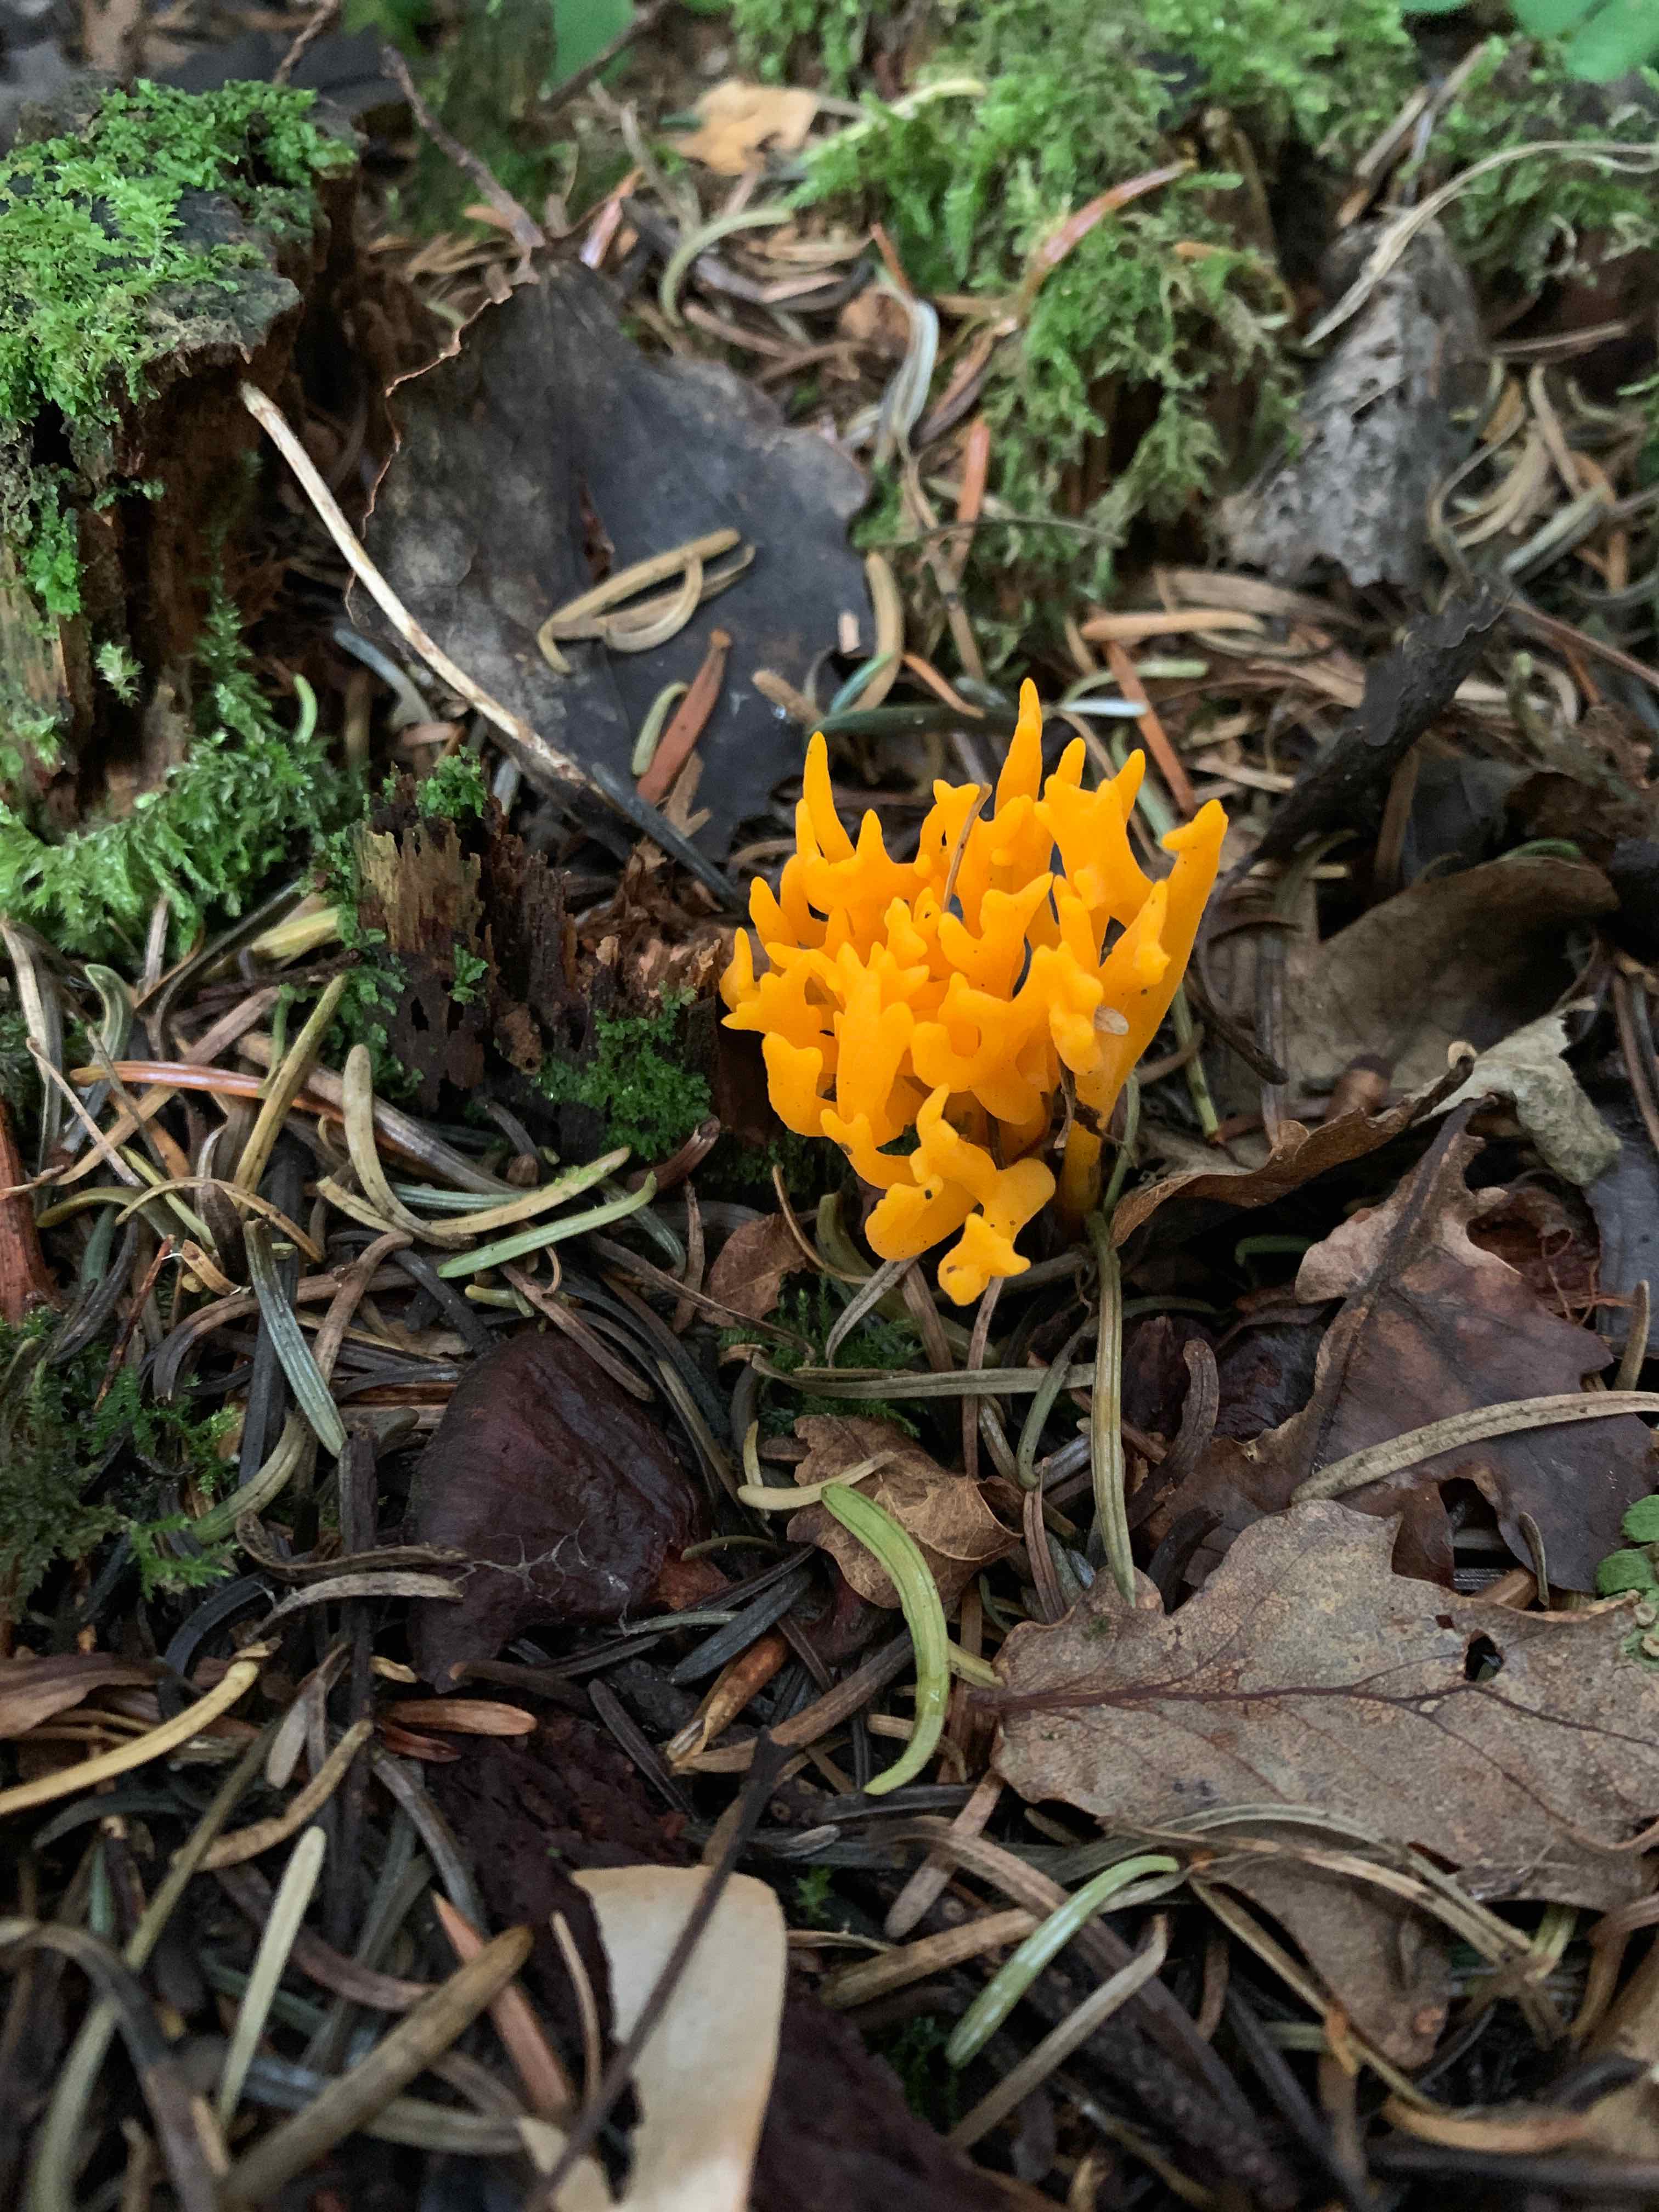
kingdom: Fungi
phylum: Basidiomycota
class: Dacrymycetes
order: Dacrymycetales
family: Dacrymycetaceae
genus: Calocera
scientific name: Calocera viscosa
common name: almindelig guldgaffel
